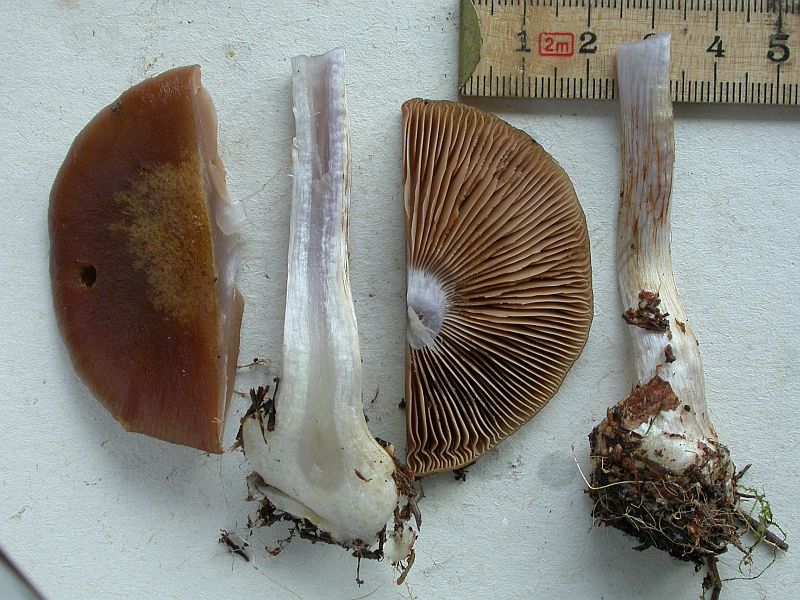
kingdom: Fungi
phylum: Basidiomycota
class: Agaricomycetes
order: Agaricales
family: Cortinariaceae
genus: Thaxterogaster
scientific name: Thaxterogaster sphagnophilus
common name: vandplettet slørhat
